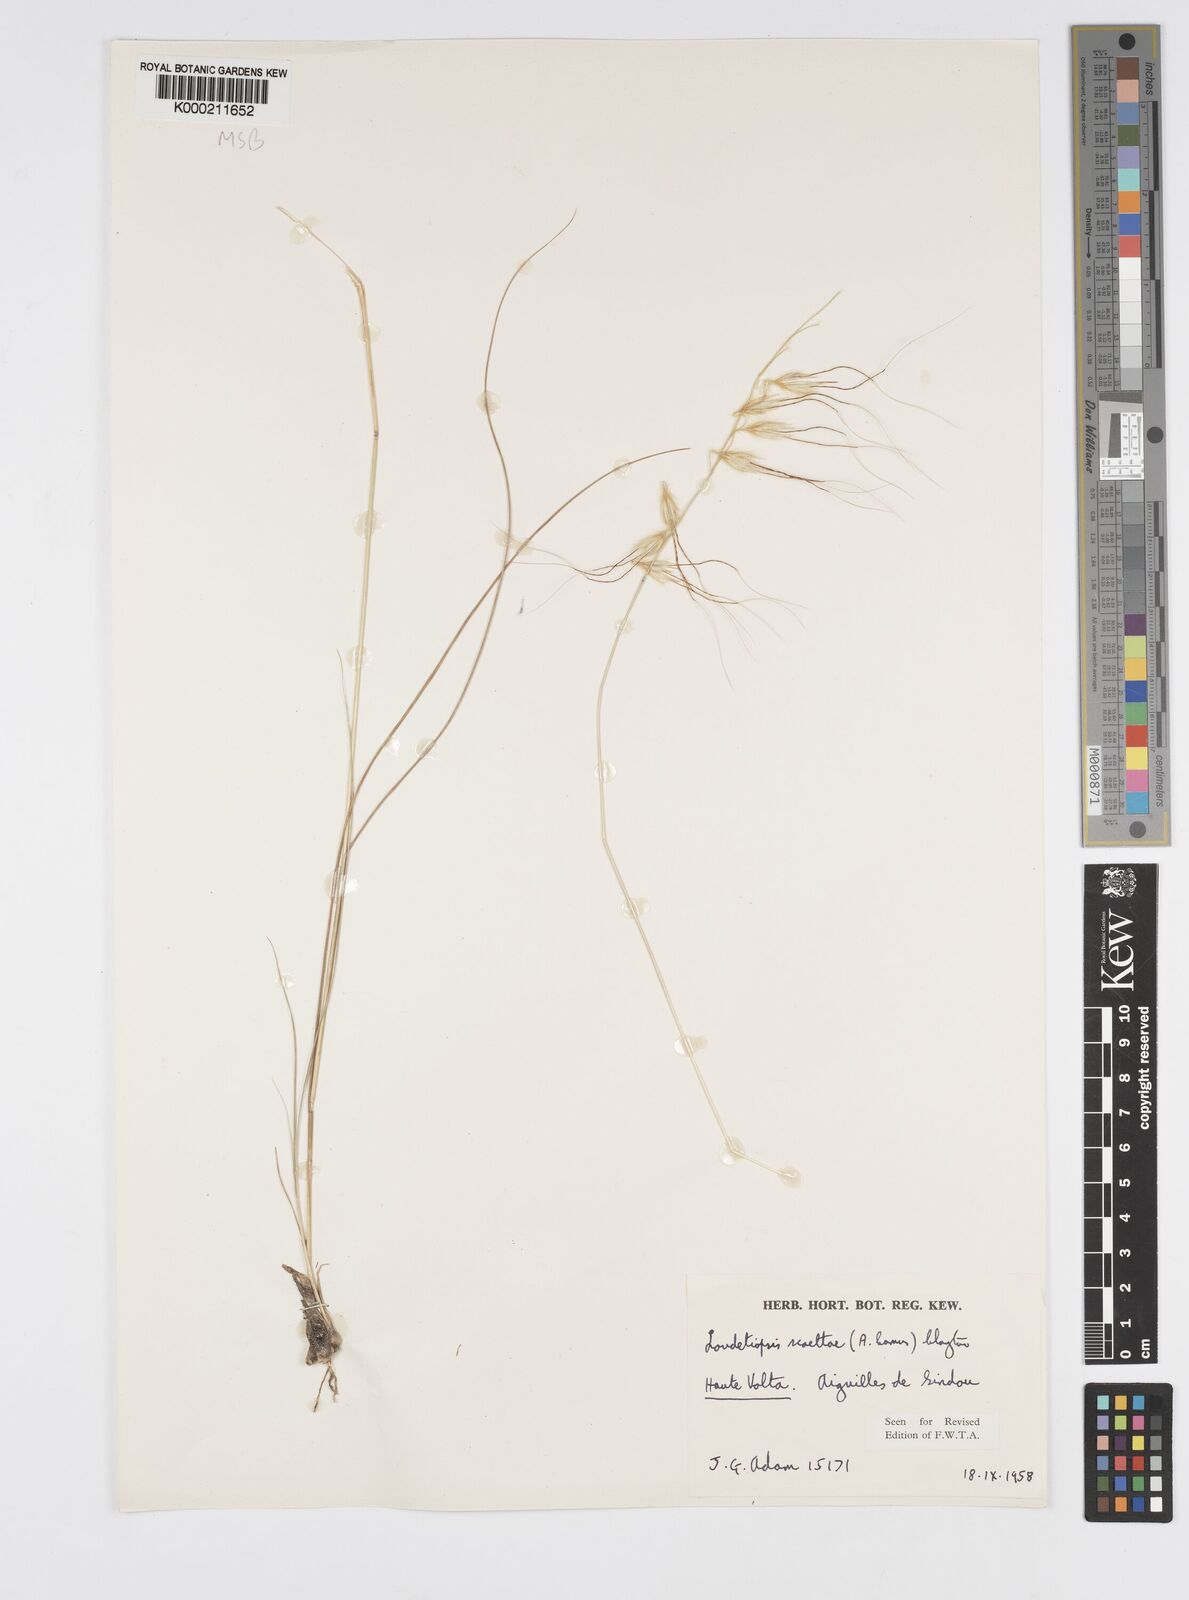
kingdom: Plantae
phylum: Tracheophyta
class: Liliopsida
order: Poales
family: Poaceae
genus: Loudetiopsis
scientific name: Loudetiopsis scaettae
